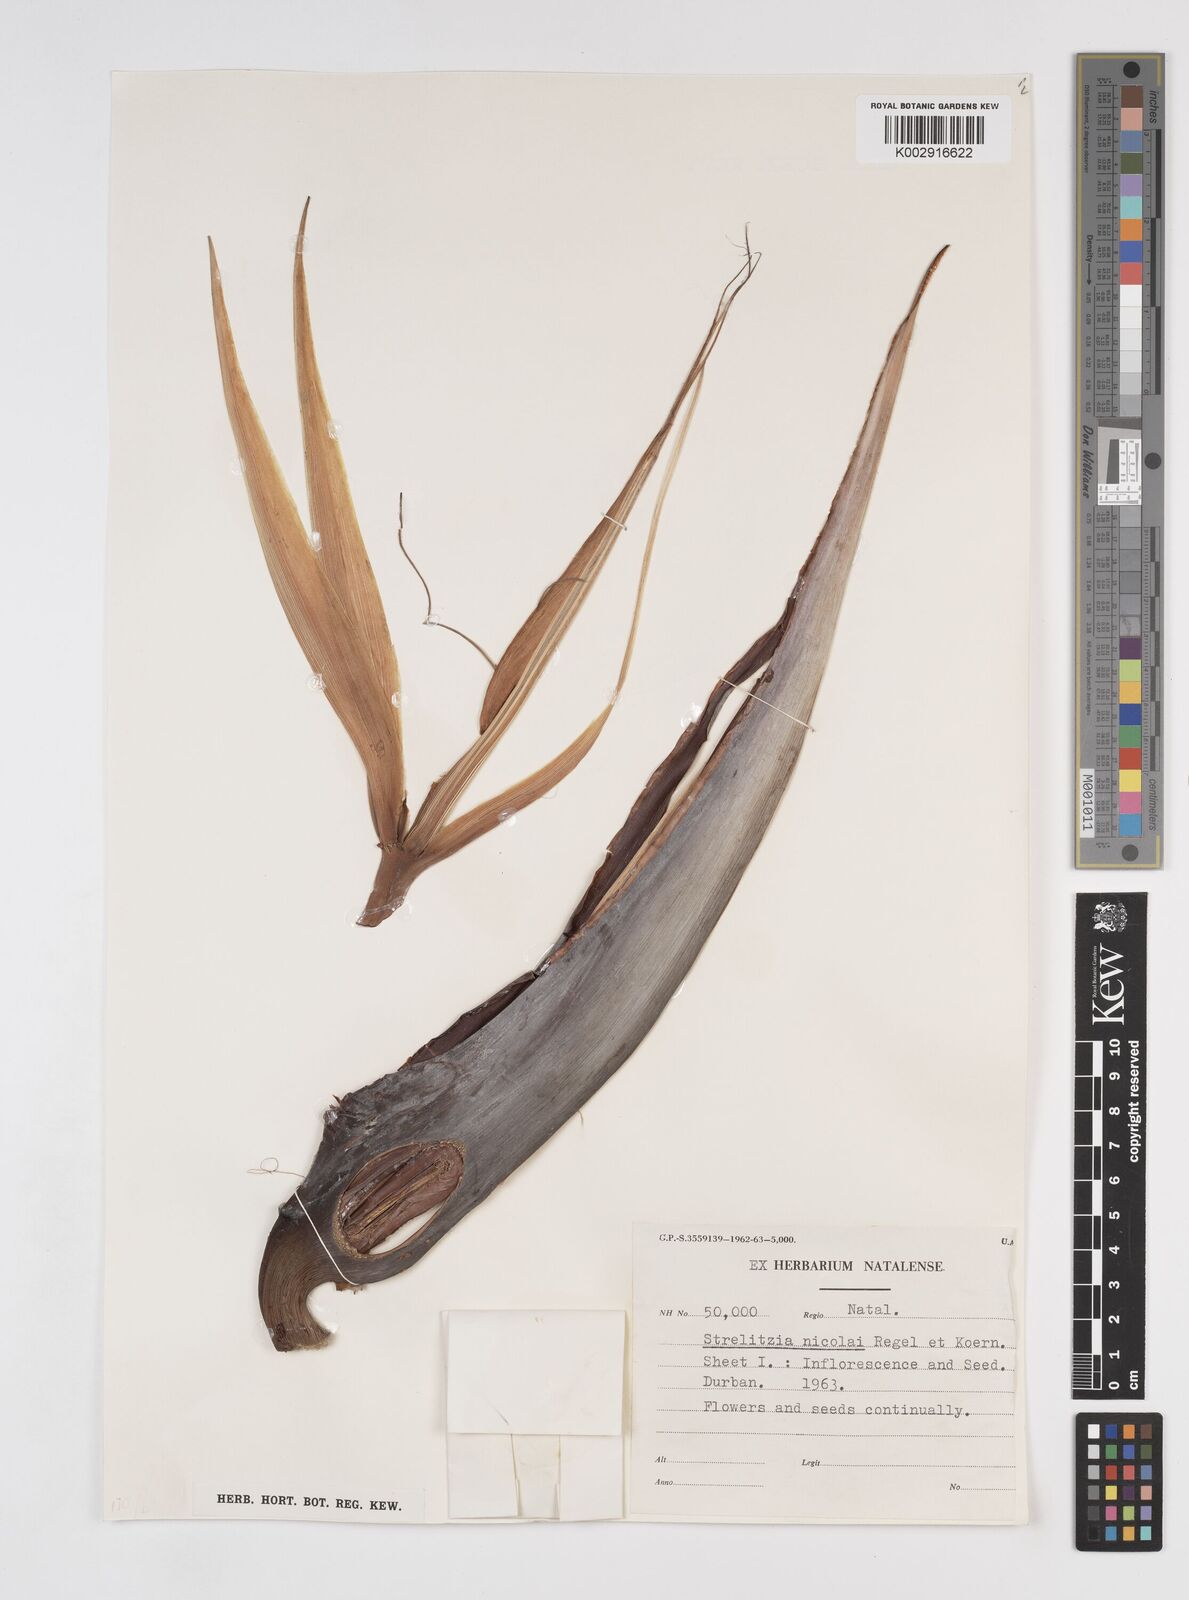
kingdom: Plantae
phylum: Tracheophyta
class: Liliopsida
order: Zingiberales
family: Strelitziaceae
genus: Strelitzia
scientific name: Strelitzia nicolai
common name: Bird-of-paradise tree
